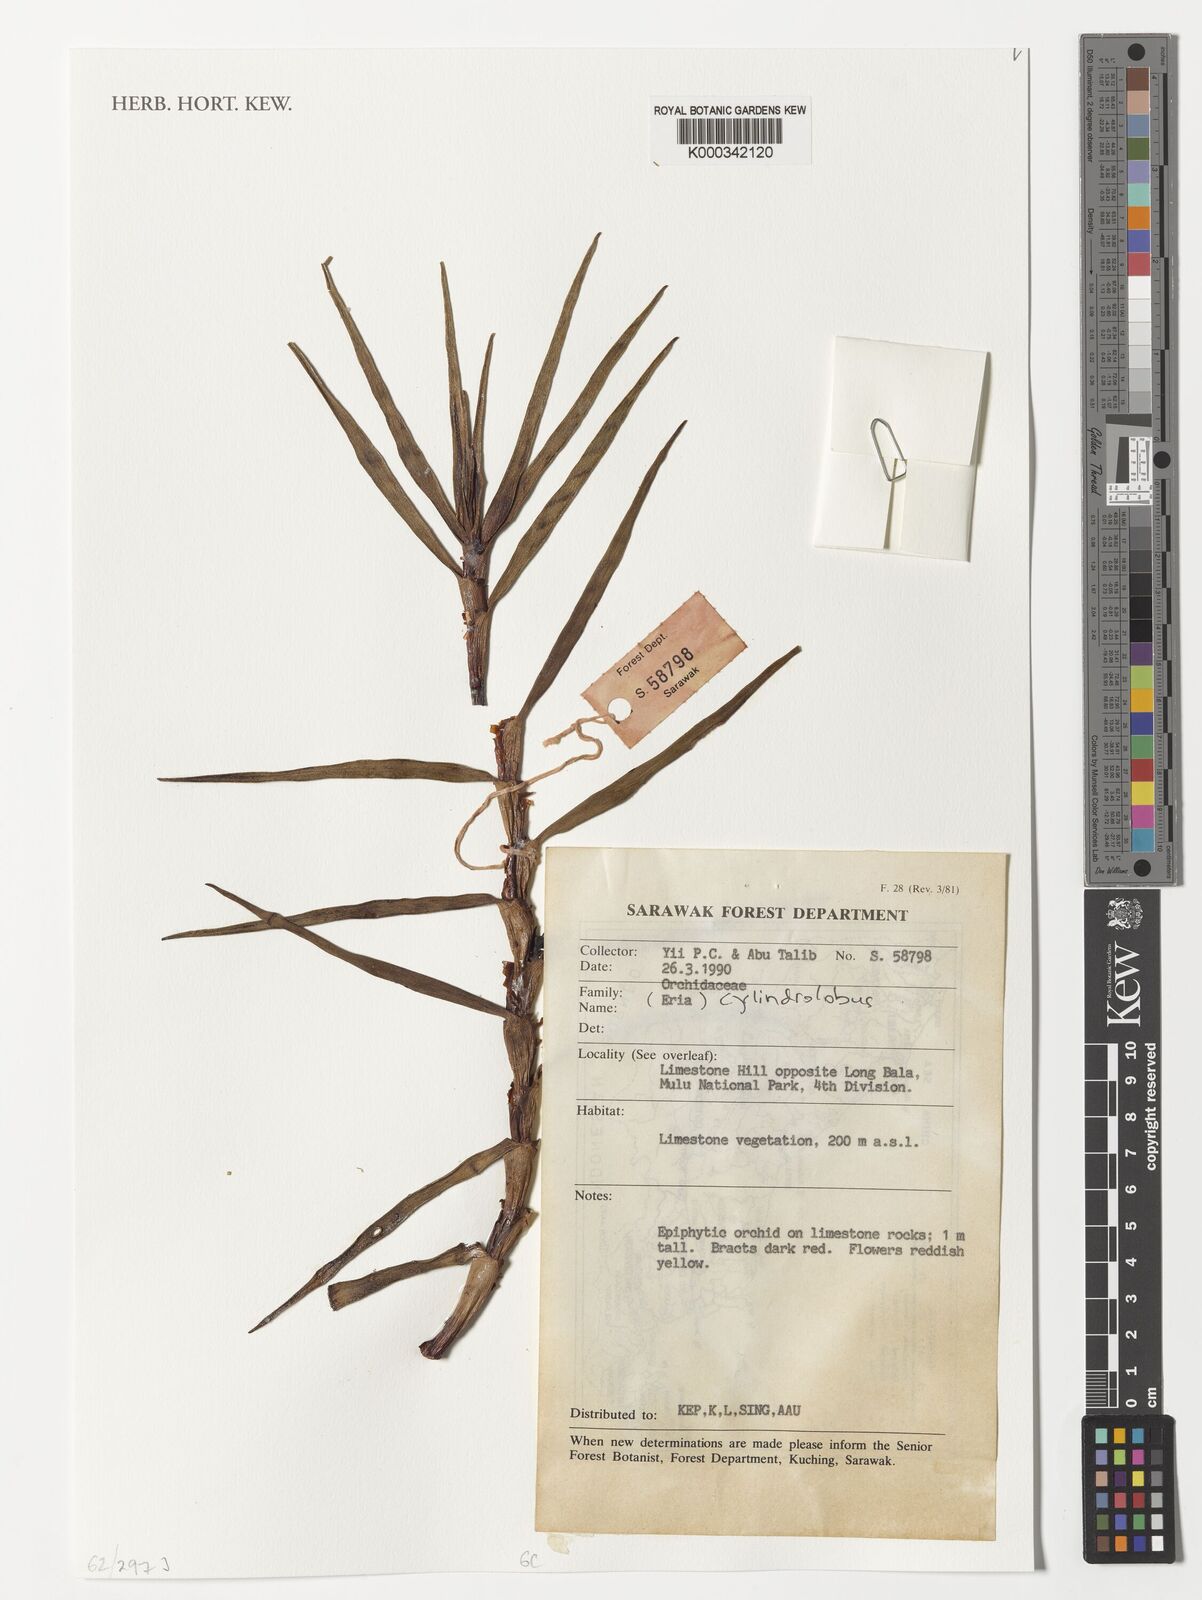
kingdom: Plantae
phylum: Tracheophyta
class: Liliopsida
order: Asparagales
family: Orchidaceae
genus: Cylindrolobus
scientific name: Cylindrolobus
